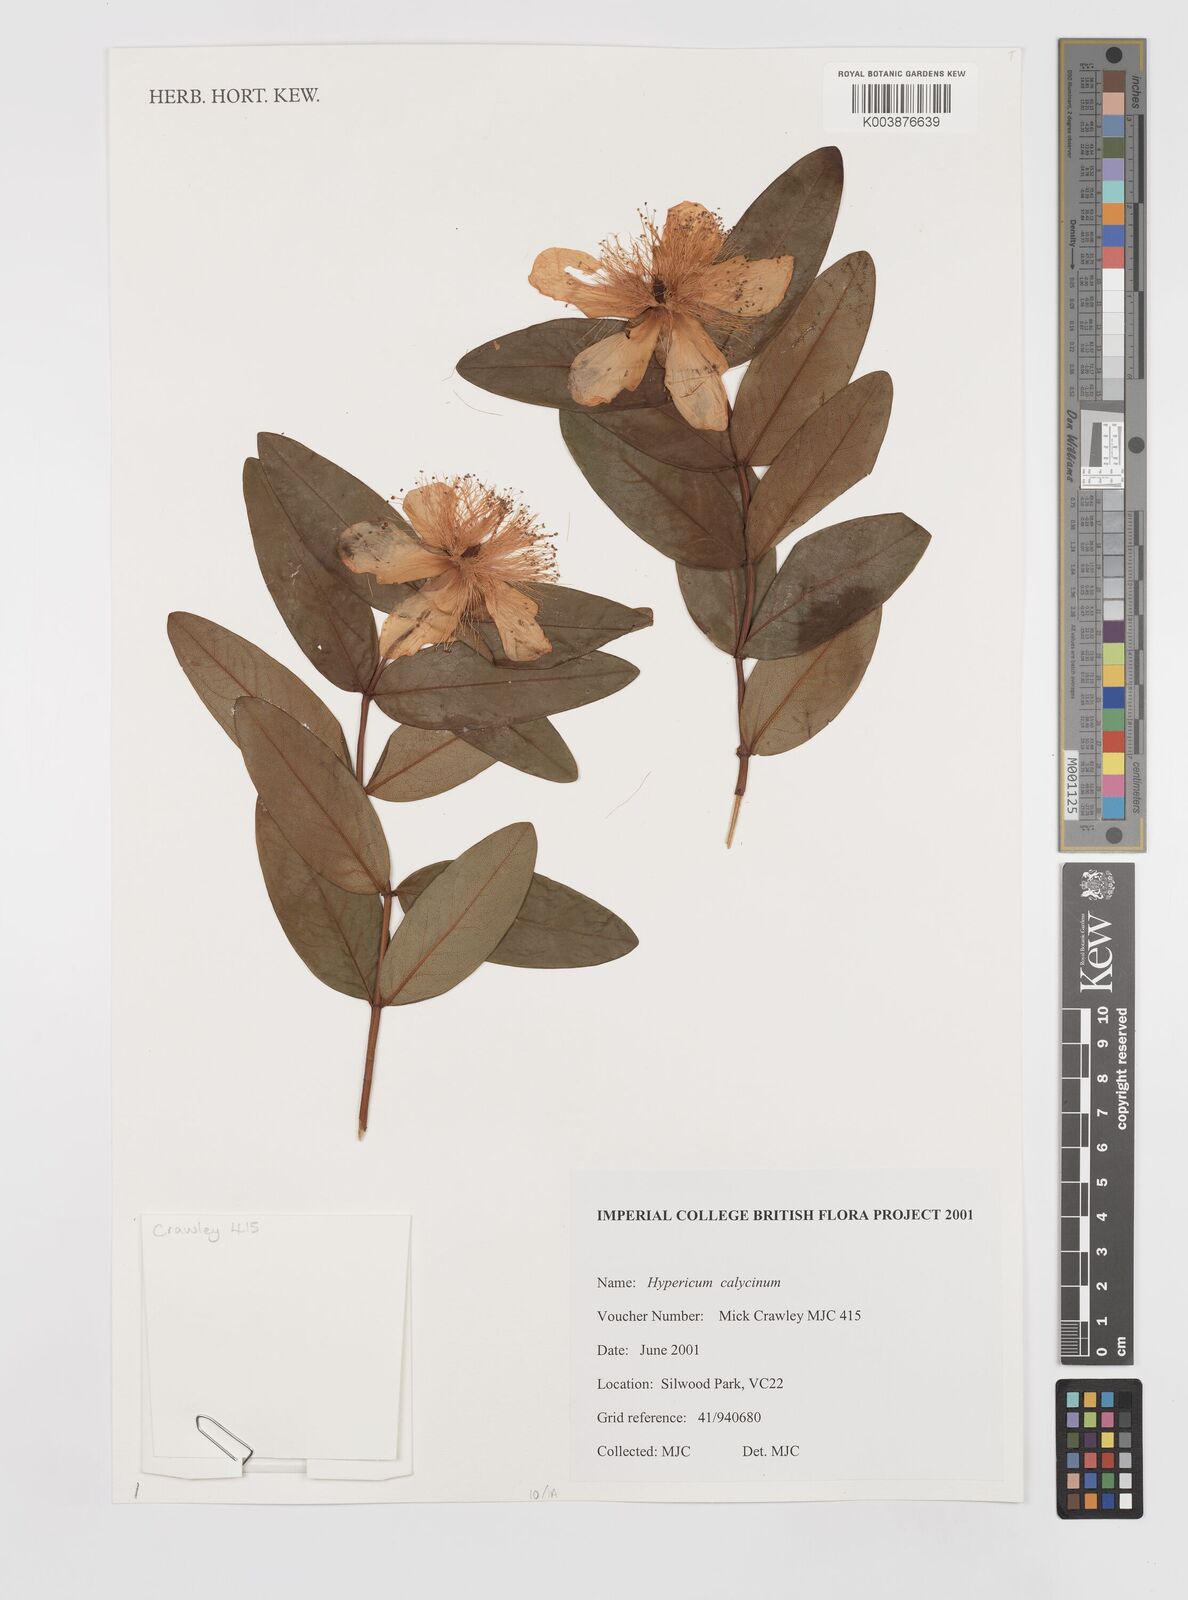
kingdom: Plantae
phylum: Tracheophyta
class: Magnoliopsida
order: Malpighiales
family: Hypericaceae
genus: Hypericum
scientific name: Hypericum calycinum
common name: Rose-of-sharon
